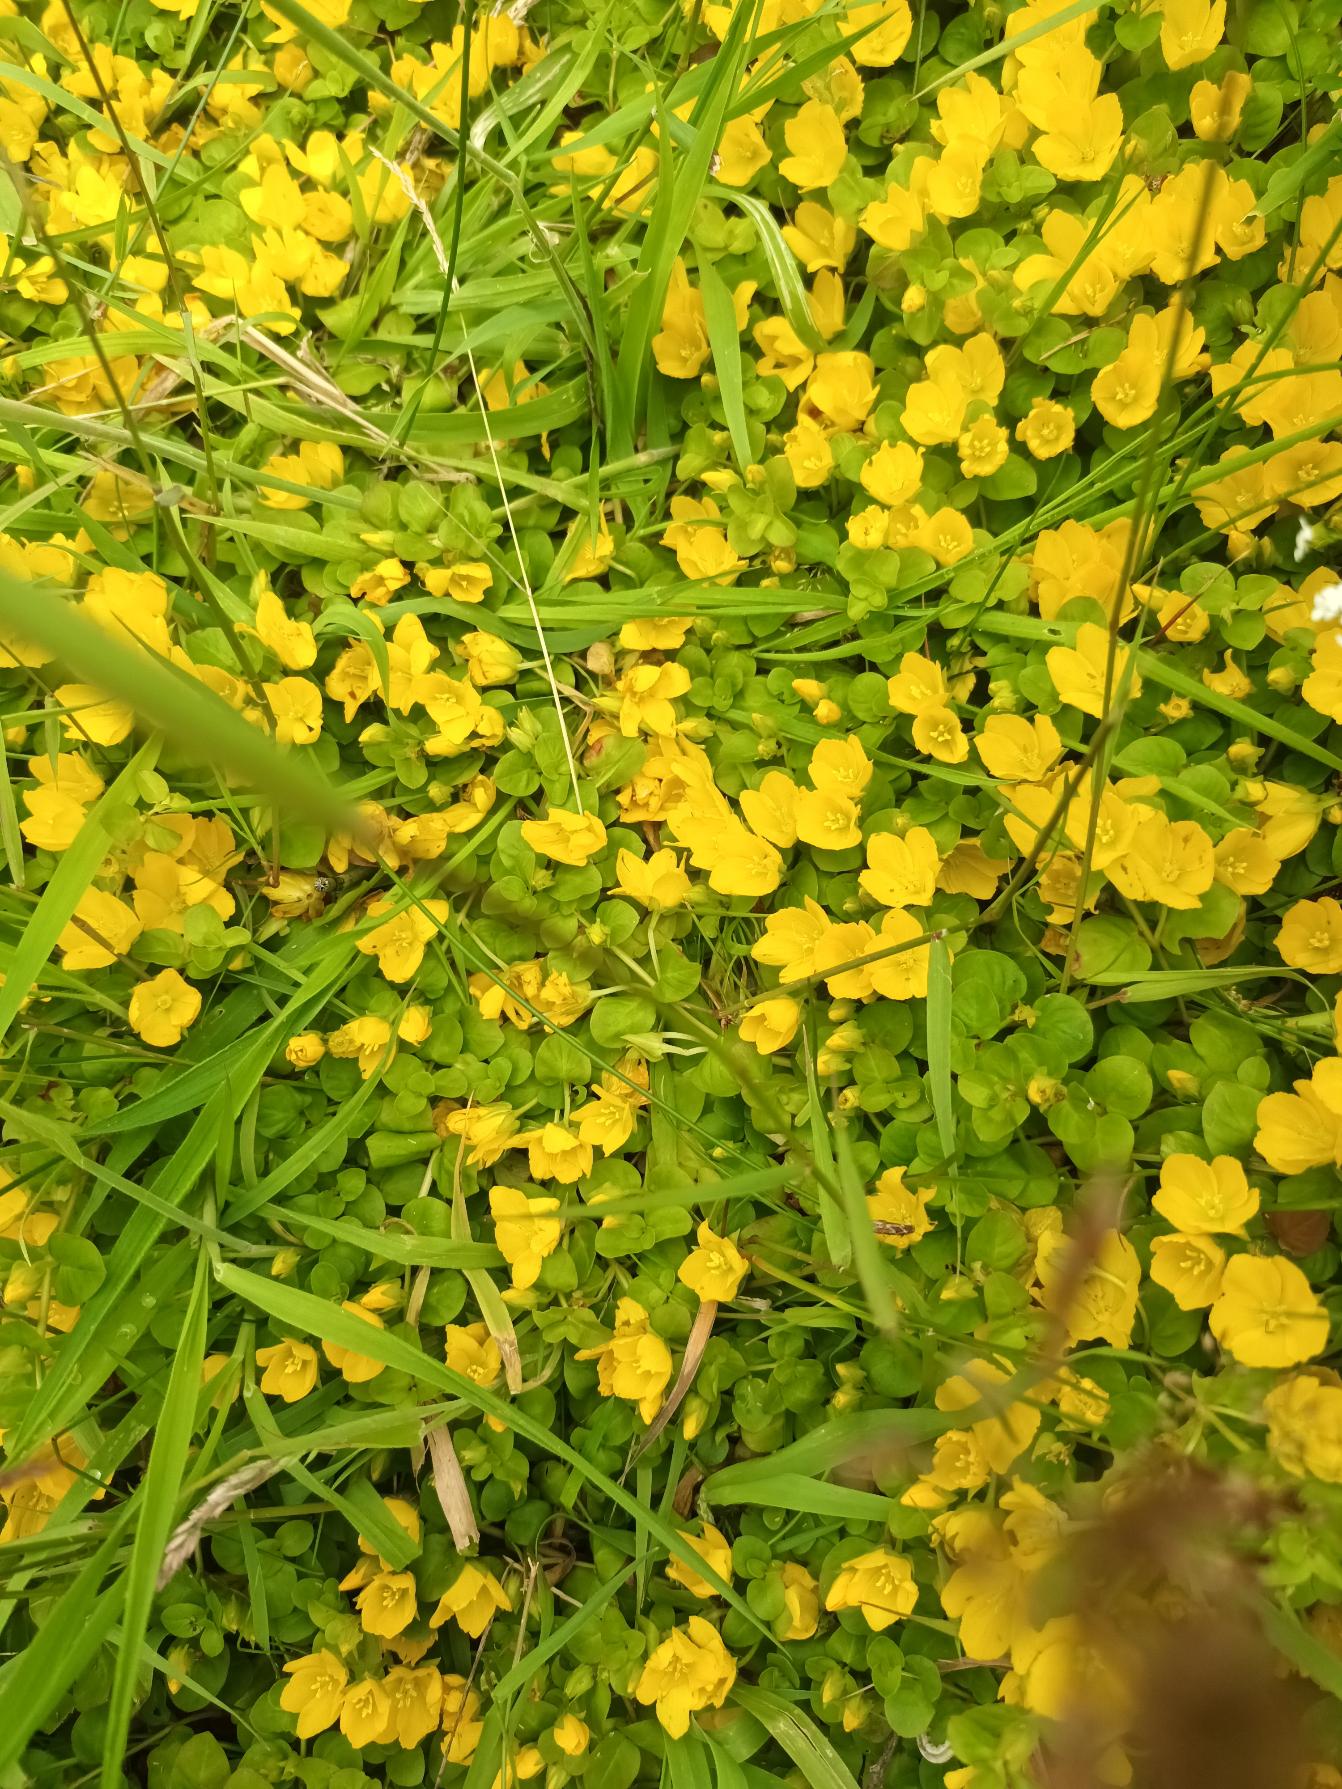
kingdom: Plantae
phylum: Tracheophyta
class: Magnoliopsida
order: Ericales
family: Primulaceae
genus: Lysimachia
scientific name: Lysimachia nummularia
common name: Pengebladet fredløs
